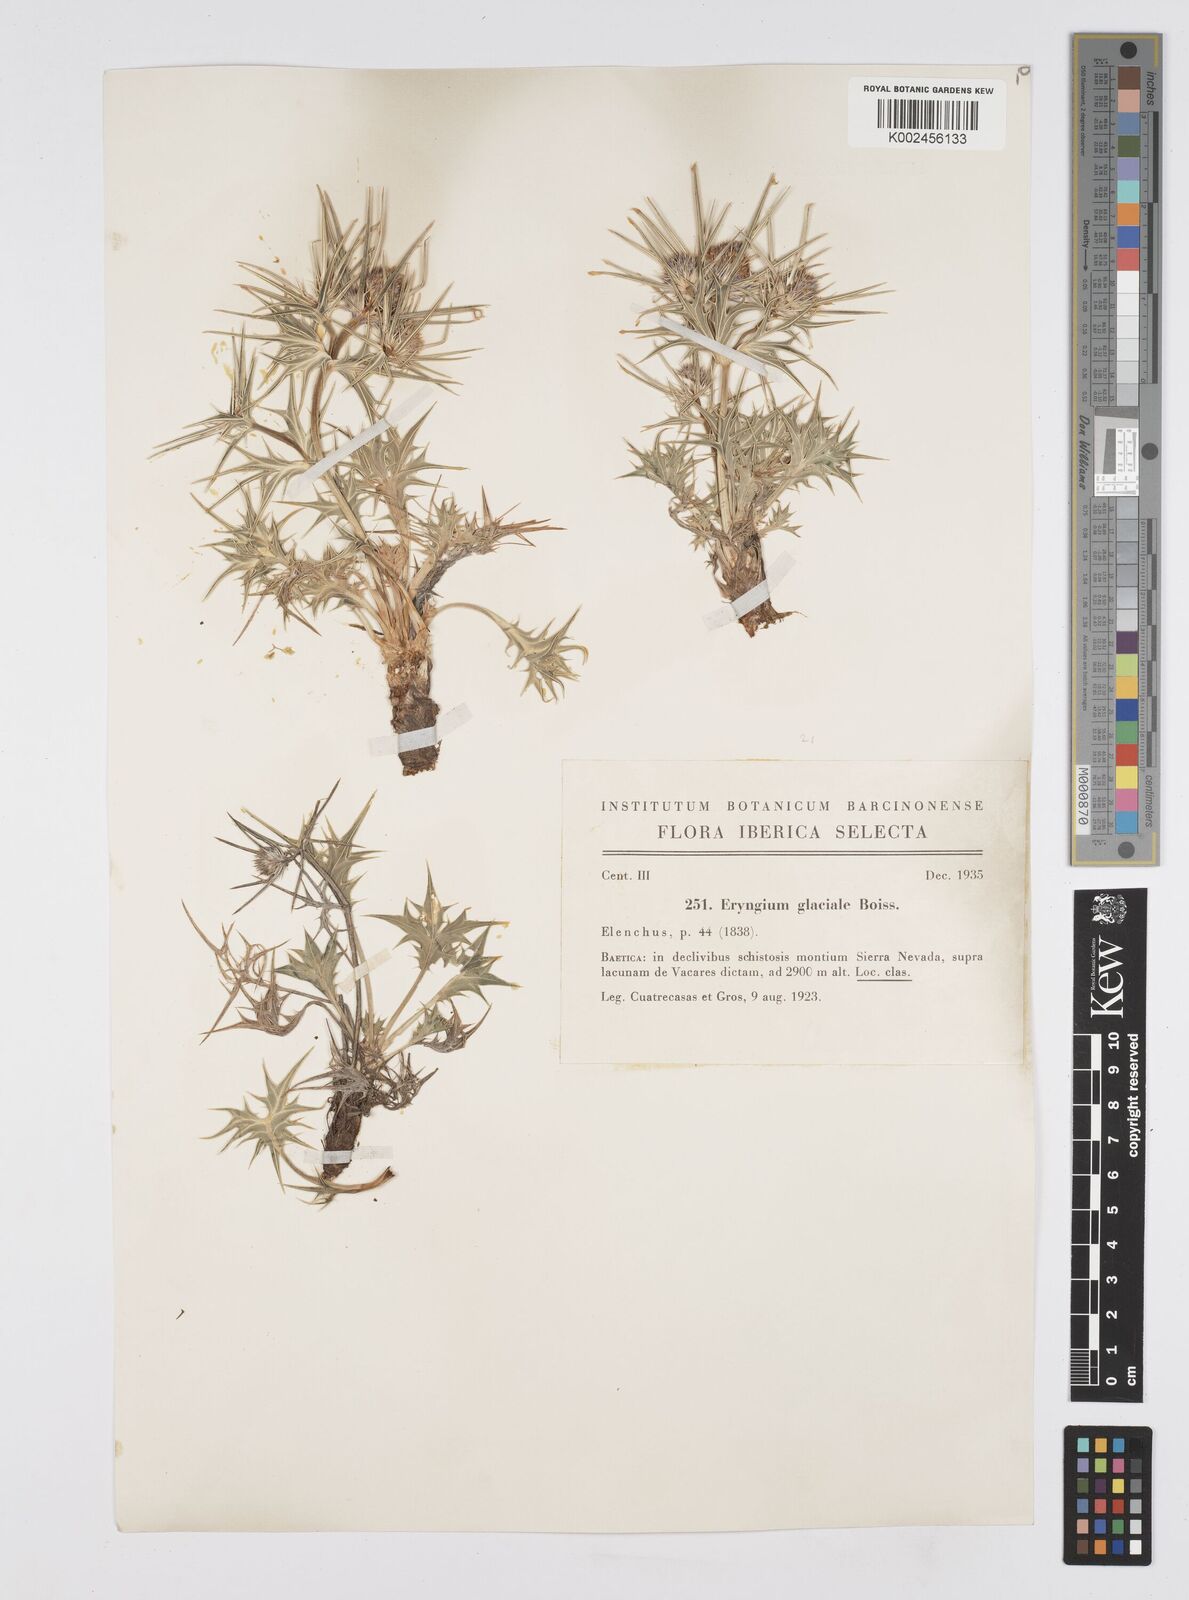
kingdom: Plantae
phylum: Tracheophyta
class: Magnoliopsida
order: Apiales
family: Apiaceae
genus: Eryngium
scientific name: Eryngium glaciale
